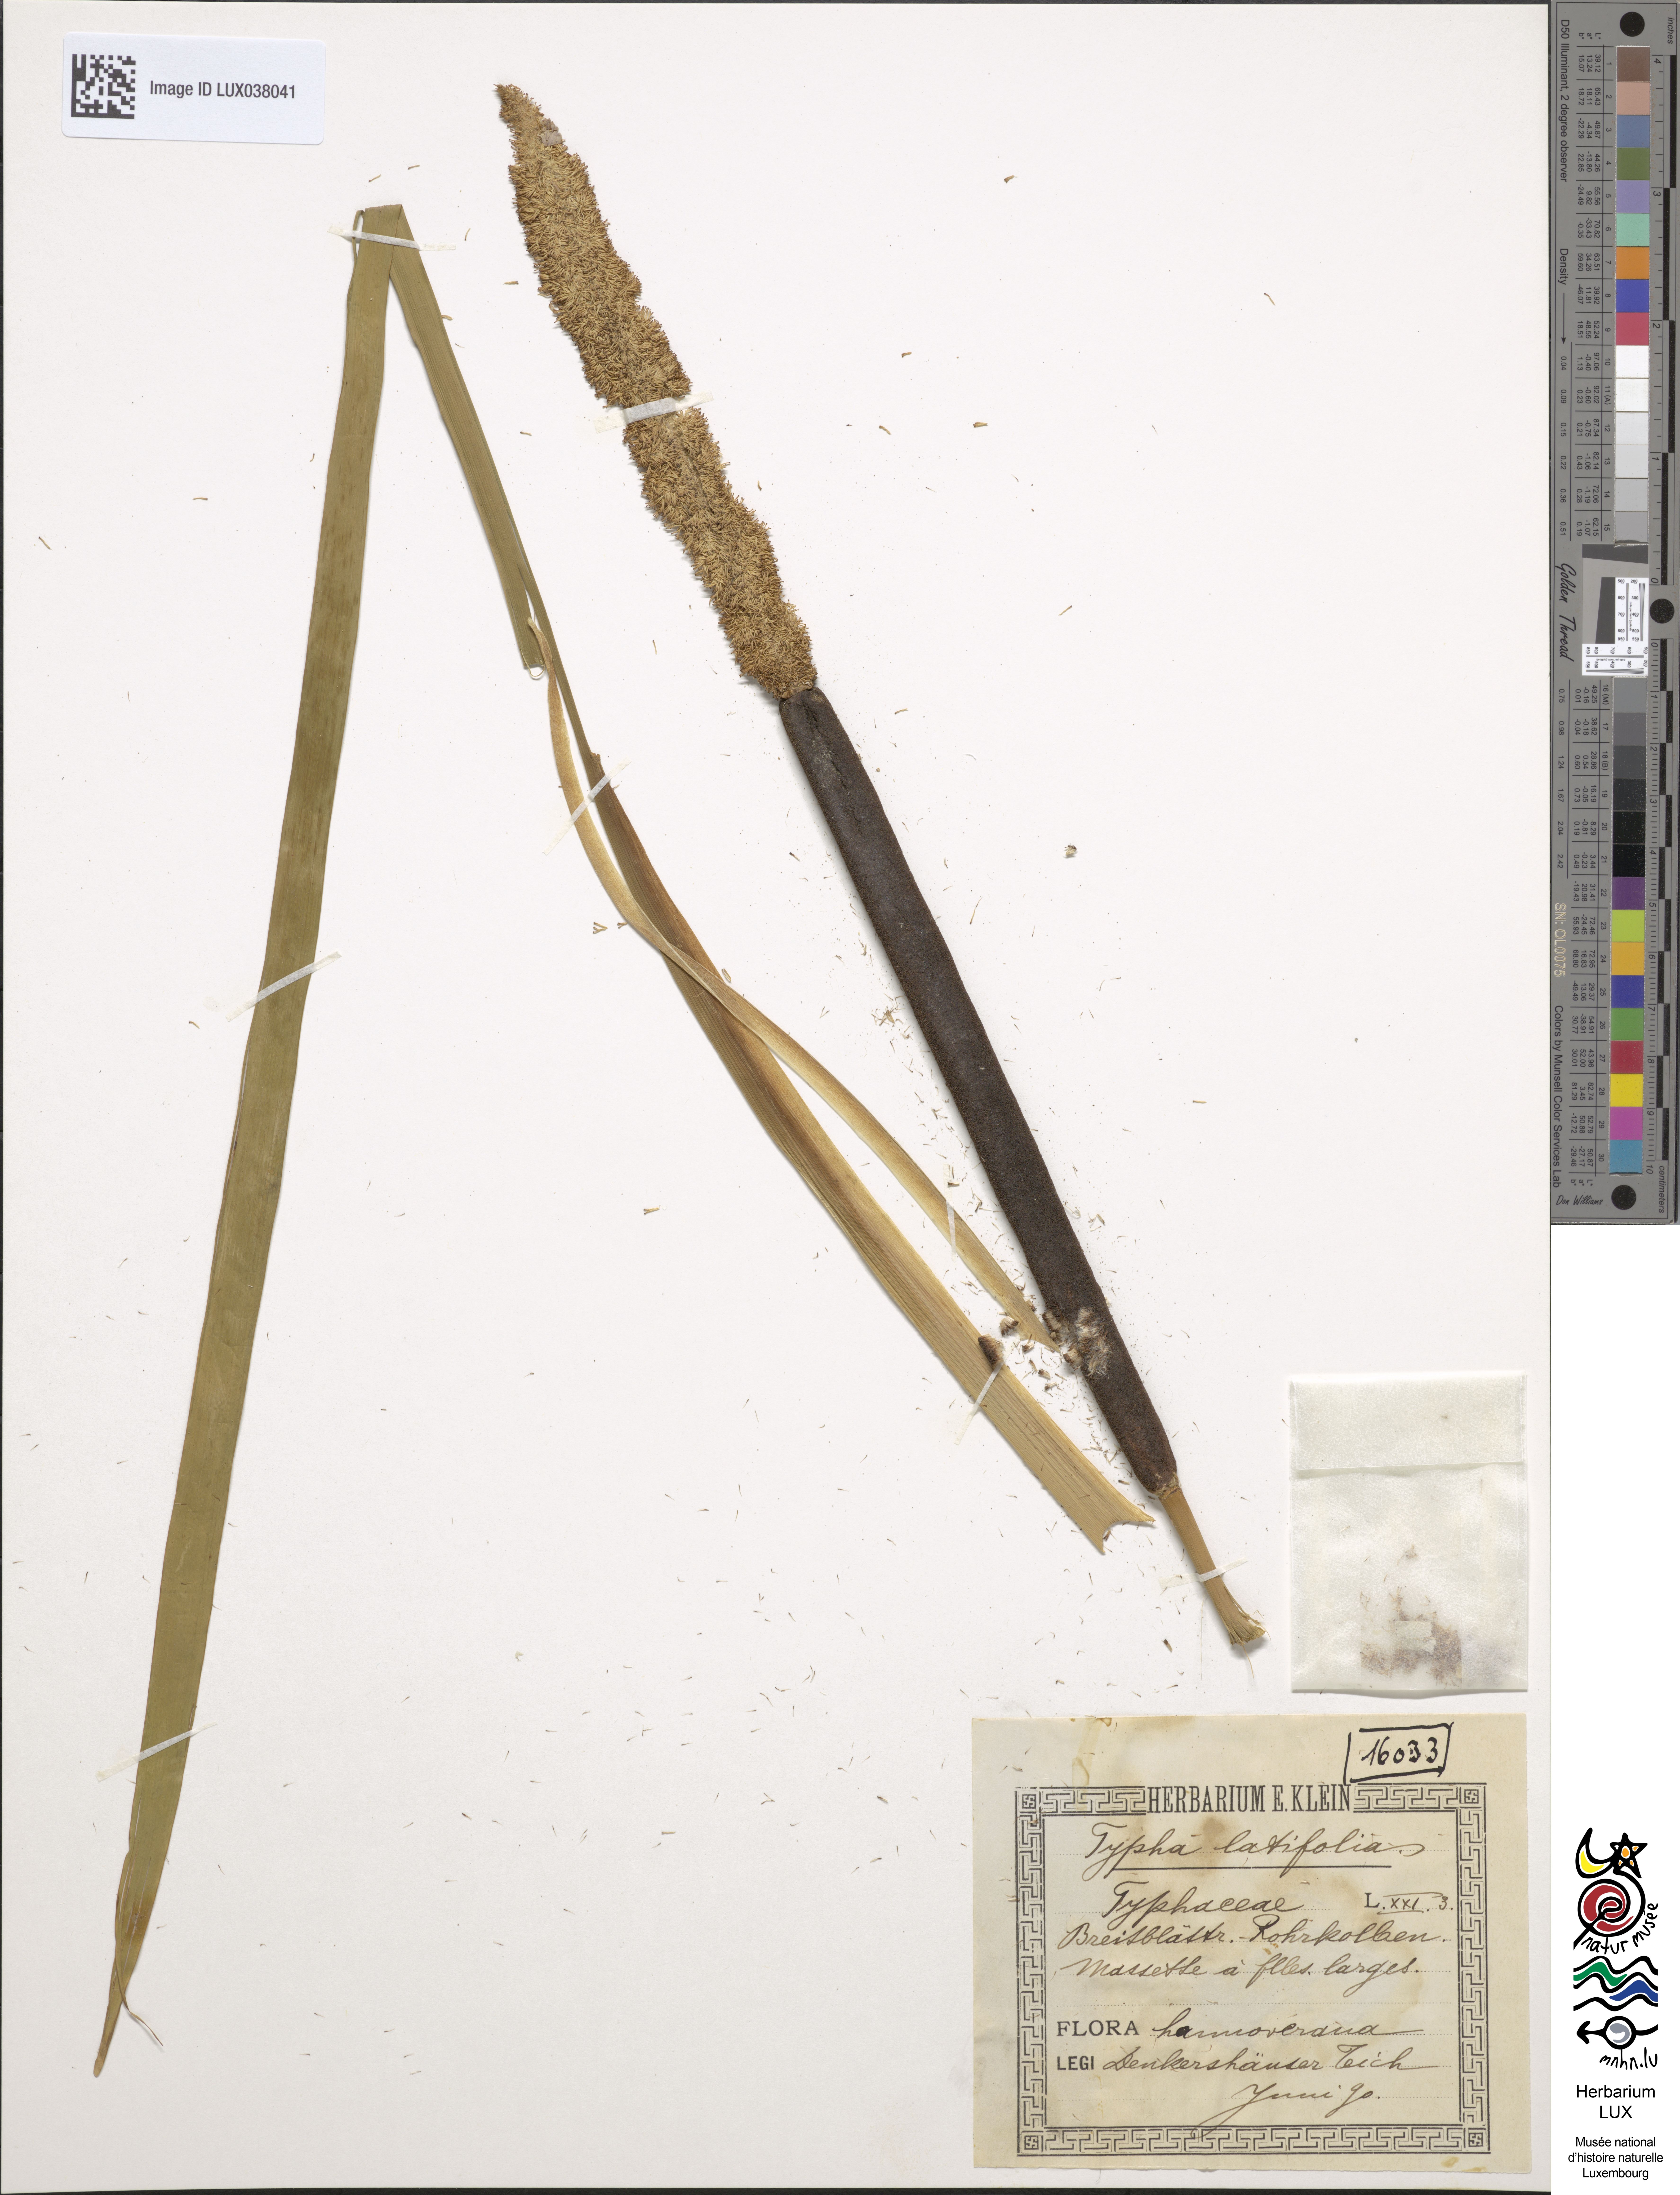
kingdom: Plantae
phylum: Tracheophyta
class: Liliopsida
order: Poales
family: Typhaceae
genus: Typha
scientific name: Typha latifolia
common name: Broadleaf cattail
